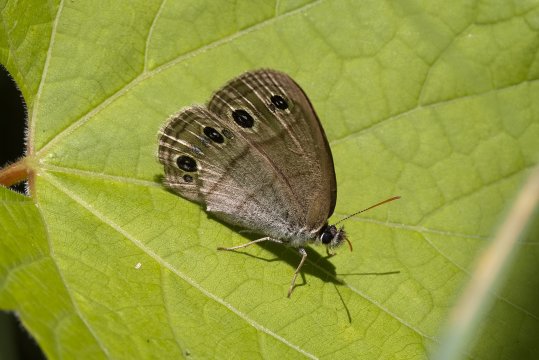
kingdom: Animalia
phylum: Arthropoda
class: Insecta
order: Lepidoptera
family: Nymphalidae
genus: Euptychia
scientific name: Euptychia cymela
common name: Little Wood Satyr
